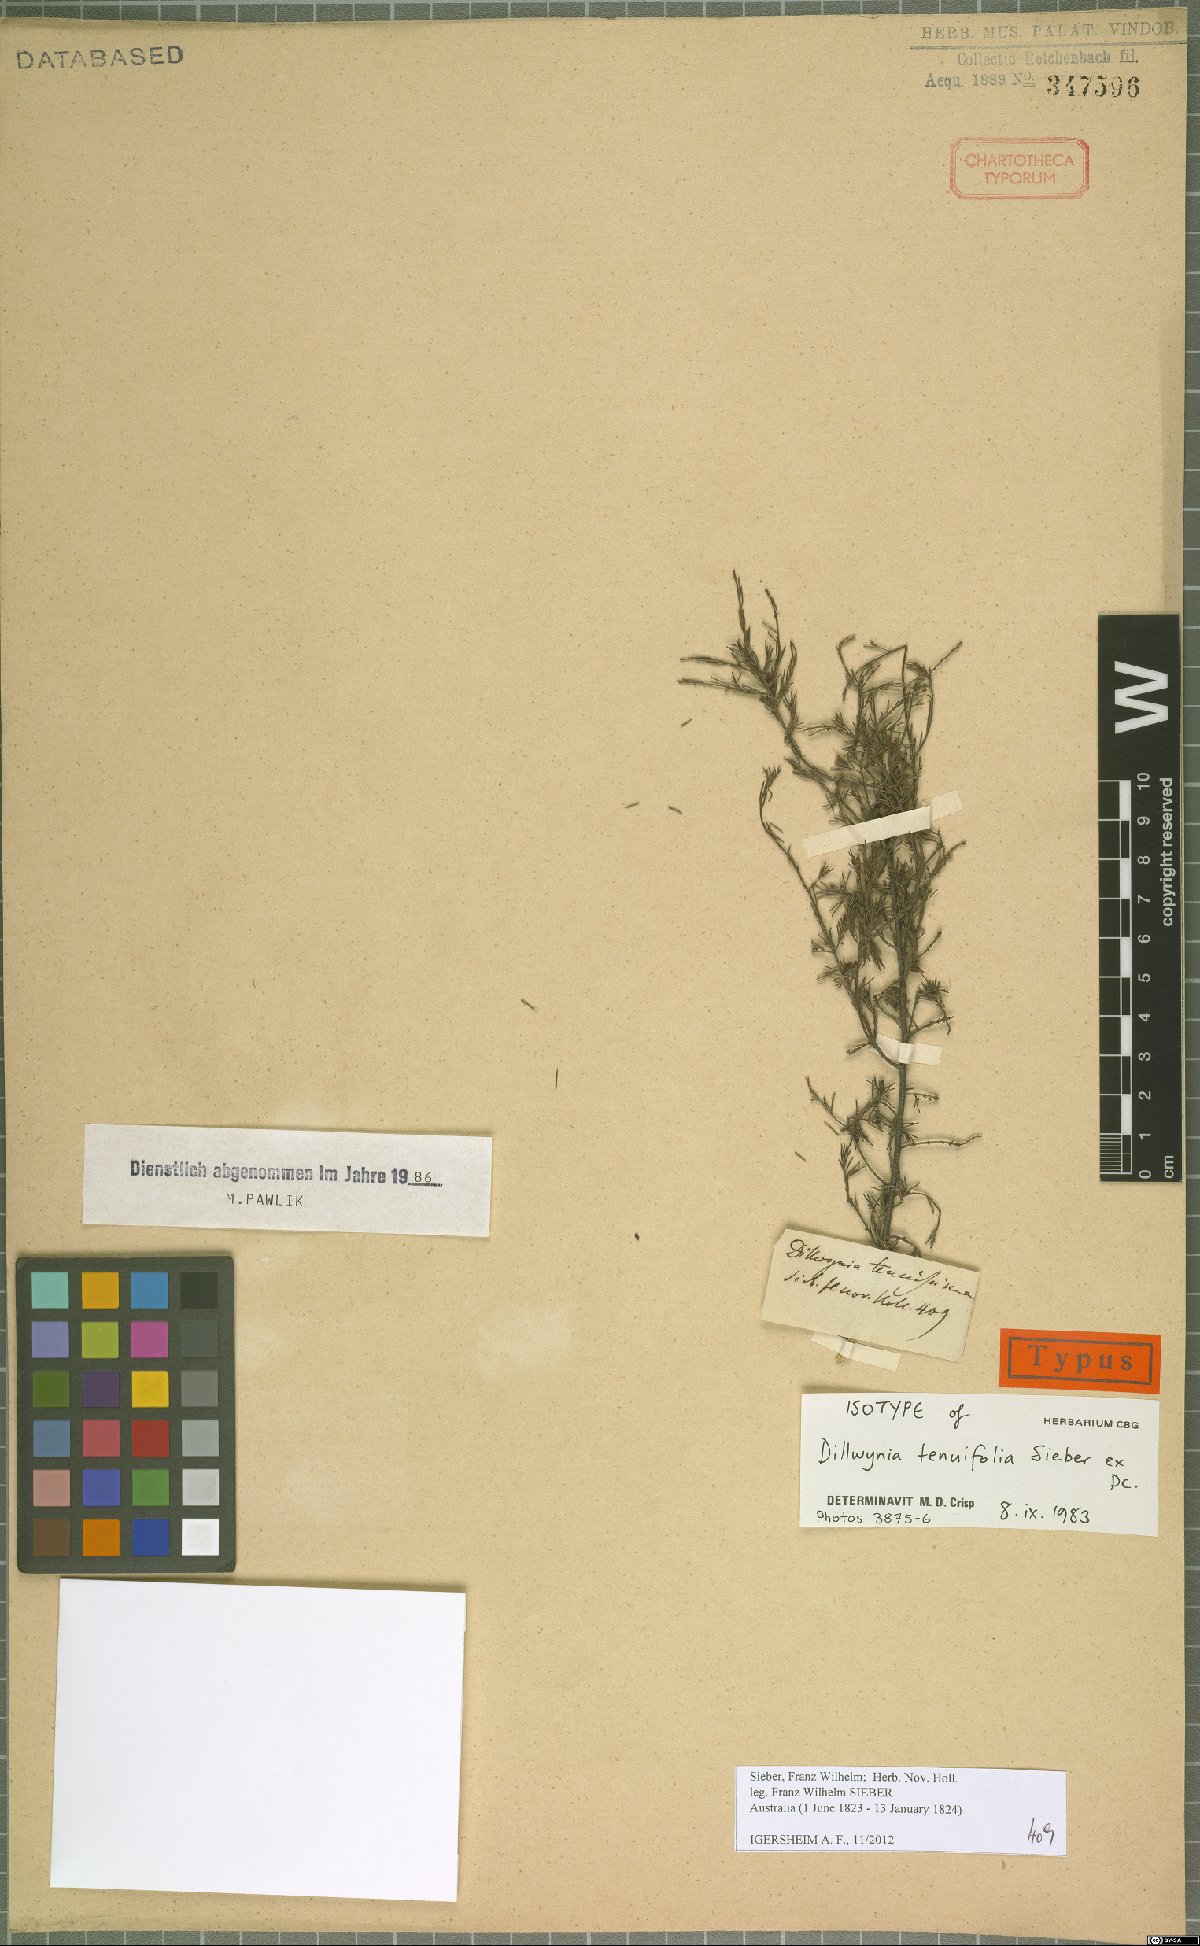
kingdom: Plantae
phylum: Tracheophyta
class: Magnoliopsida
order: Fabales
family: Fabaceae
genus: Dillwynia
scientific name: Dillwynia tenuifolia
